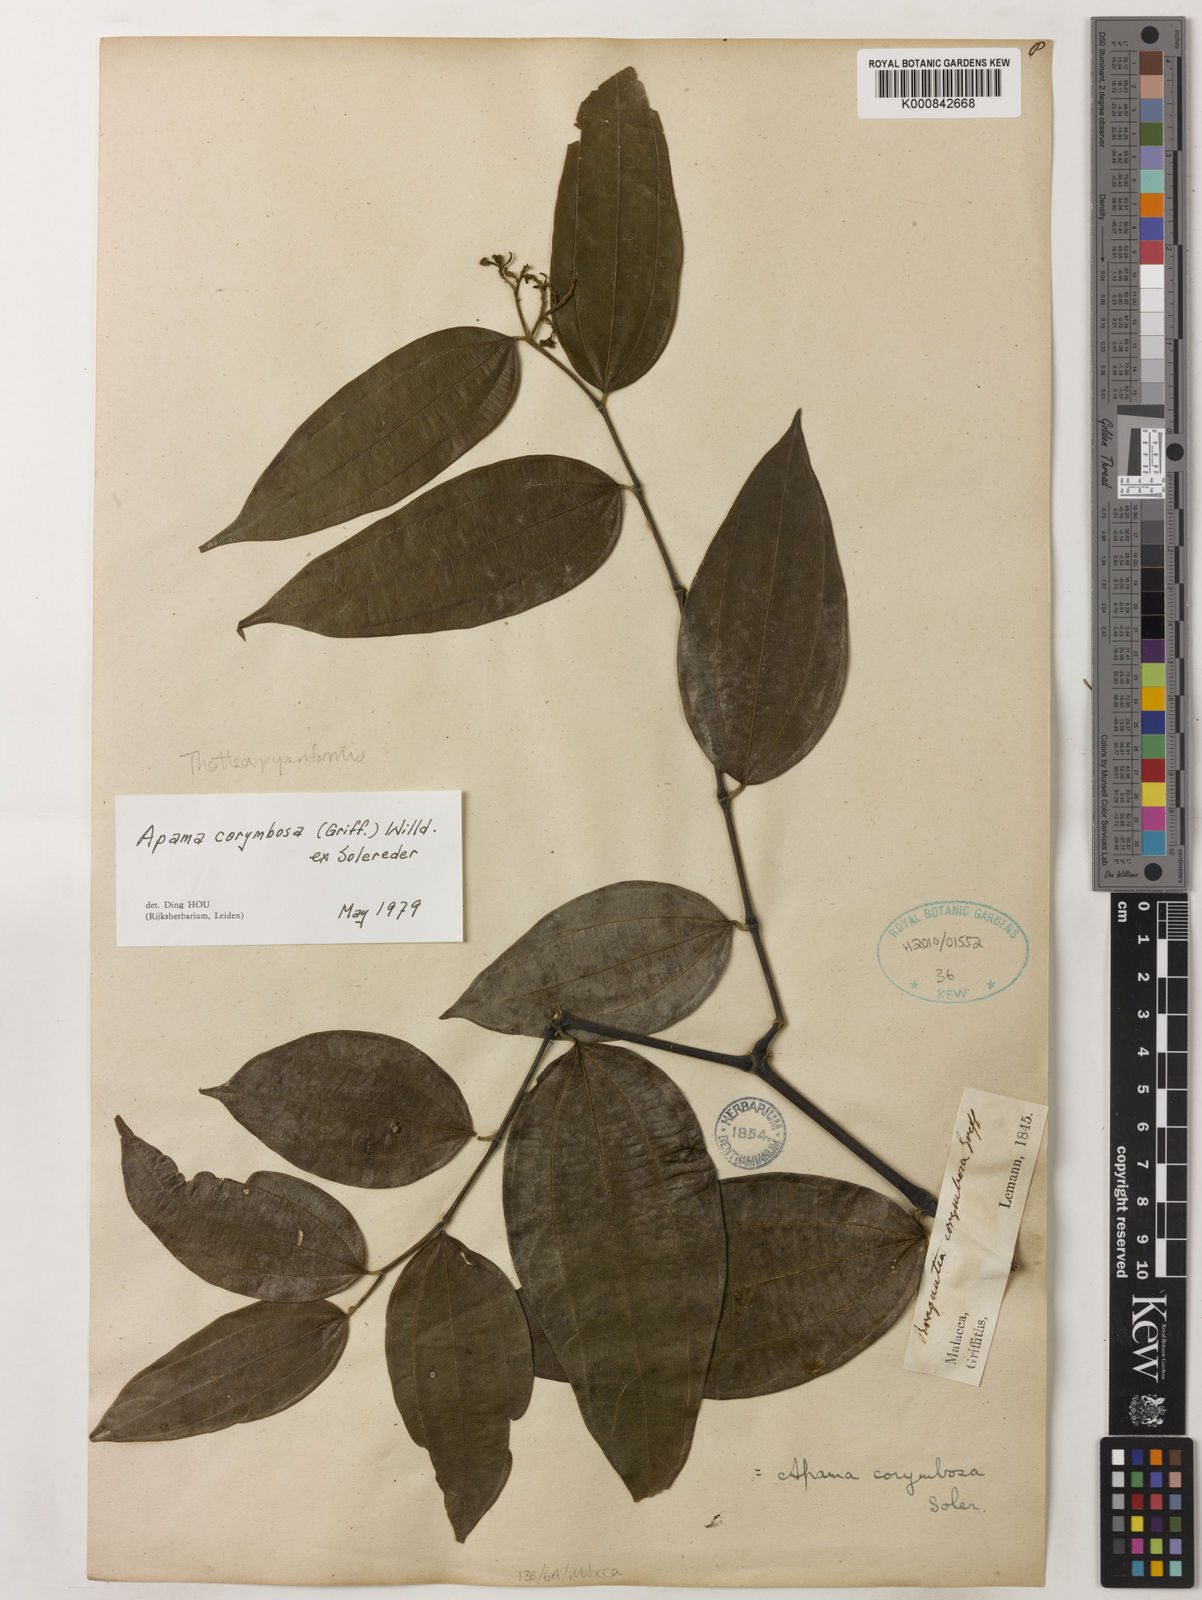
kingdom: Plantae
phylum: Tracheophyta
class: Magnoliopsida
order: Piperales
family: Aristolochiaceae
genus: Thottea
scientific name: Thottea piperiformis
